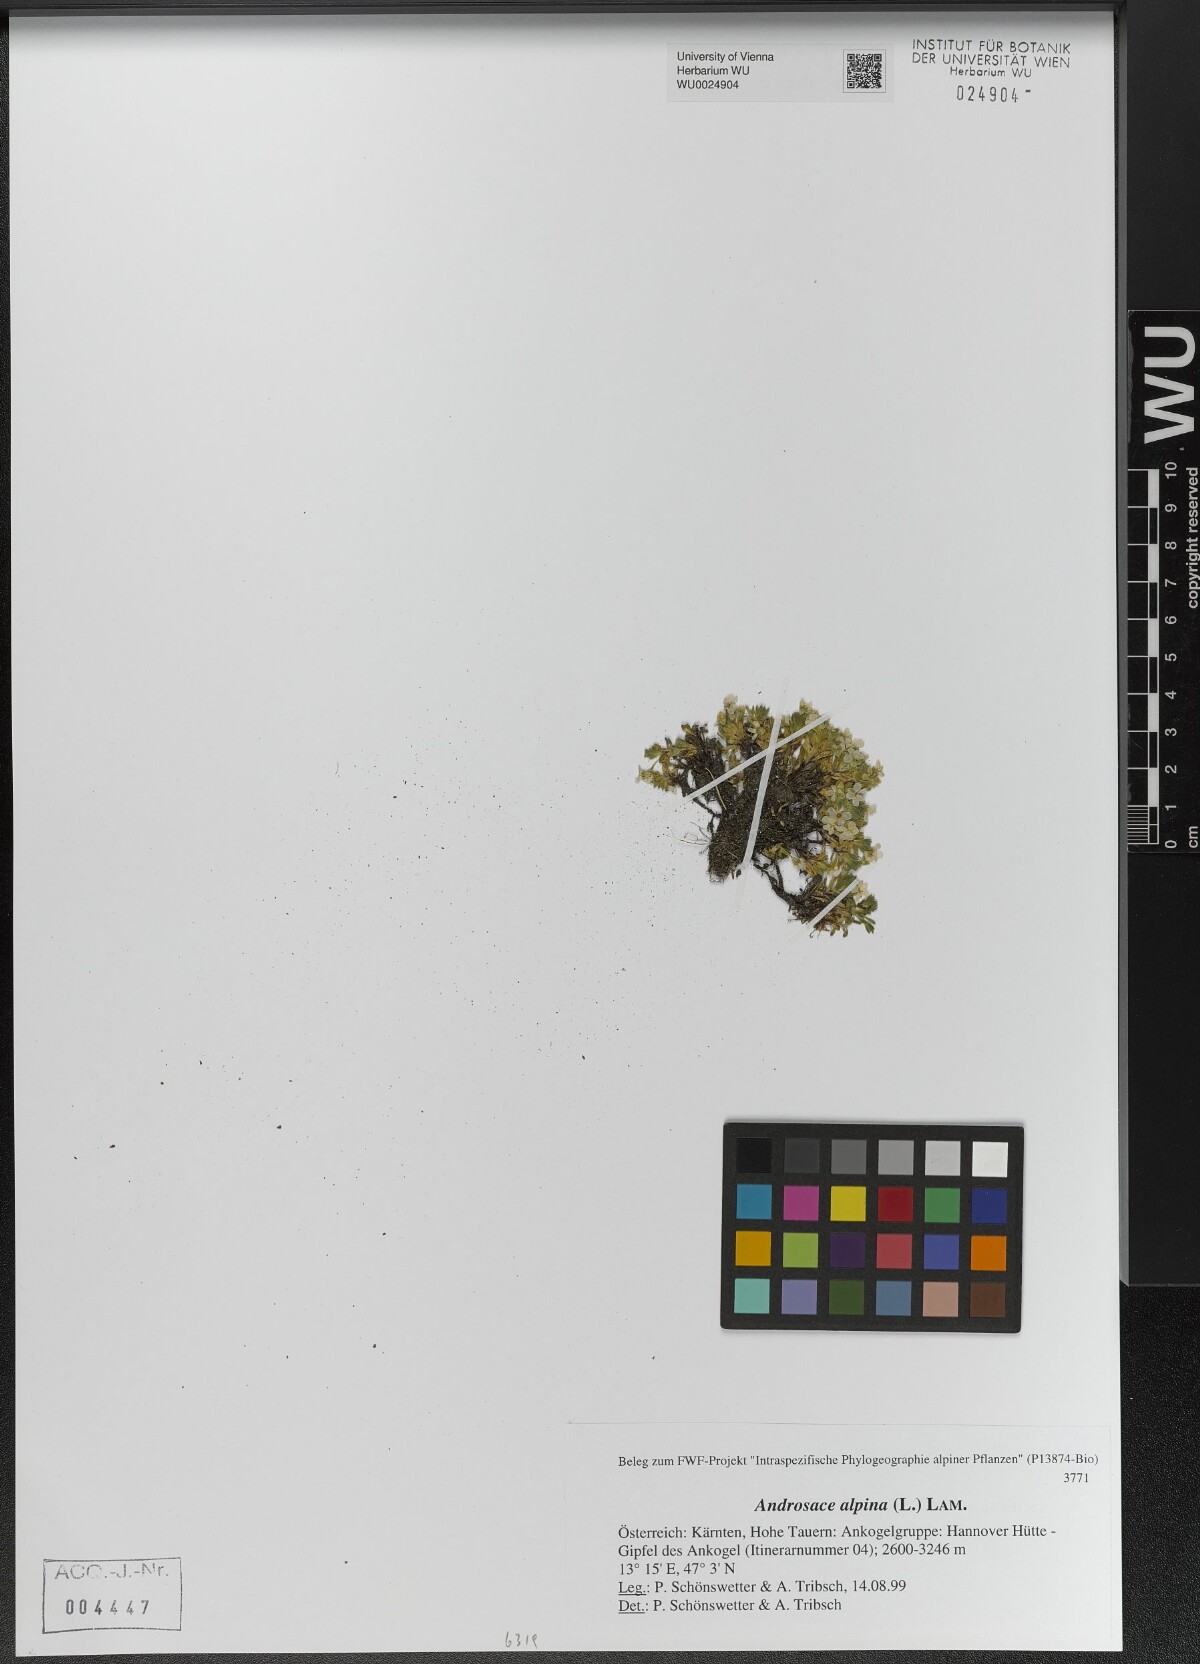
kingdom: Plantae
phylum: Tracheophyta
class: Magnoliopsida
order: Ericales
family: Primulaceae
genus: Androsace
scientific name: Androsace alpina
